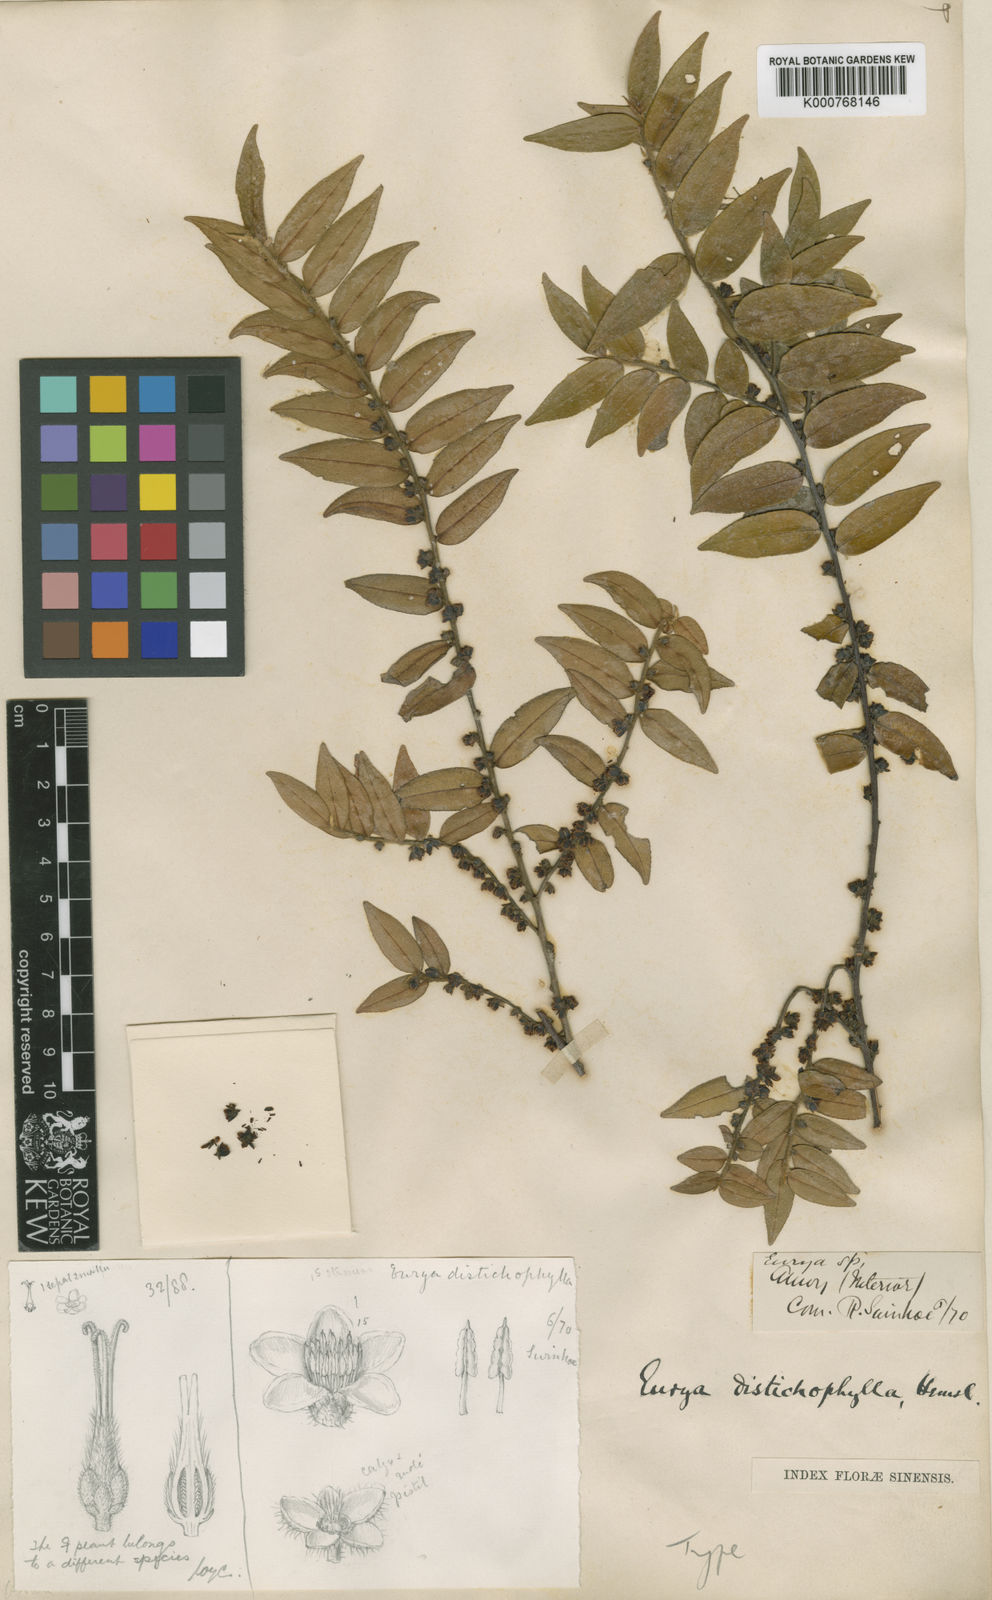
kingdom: Plantae
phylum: Tracheophyta
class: Magnoliopsida
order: Ericales
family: Pentaphylacaceae
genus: Eurya
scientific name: Eurya distichophylla
